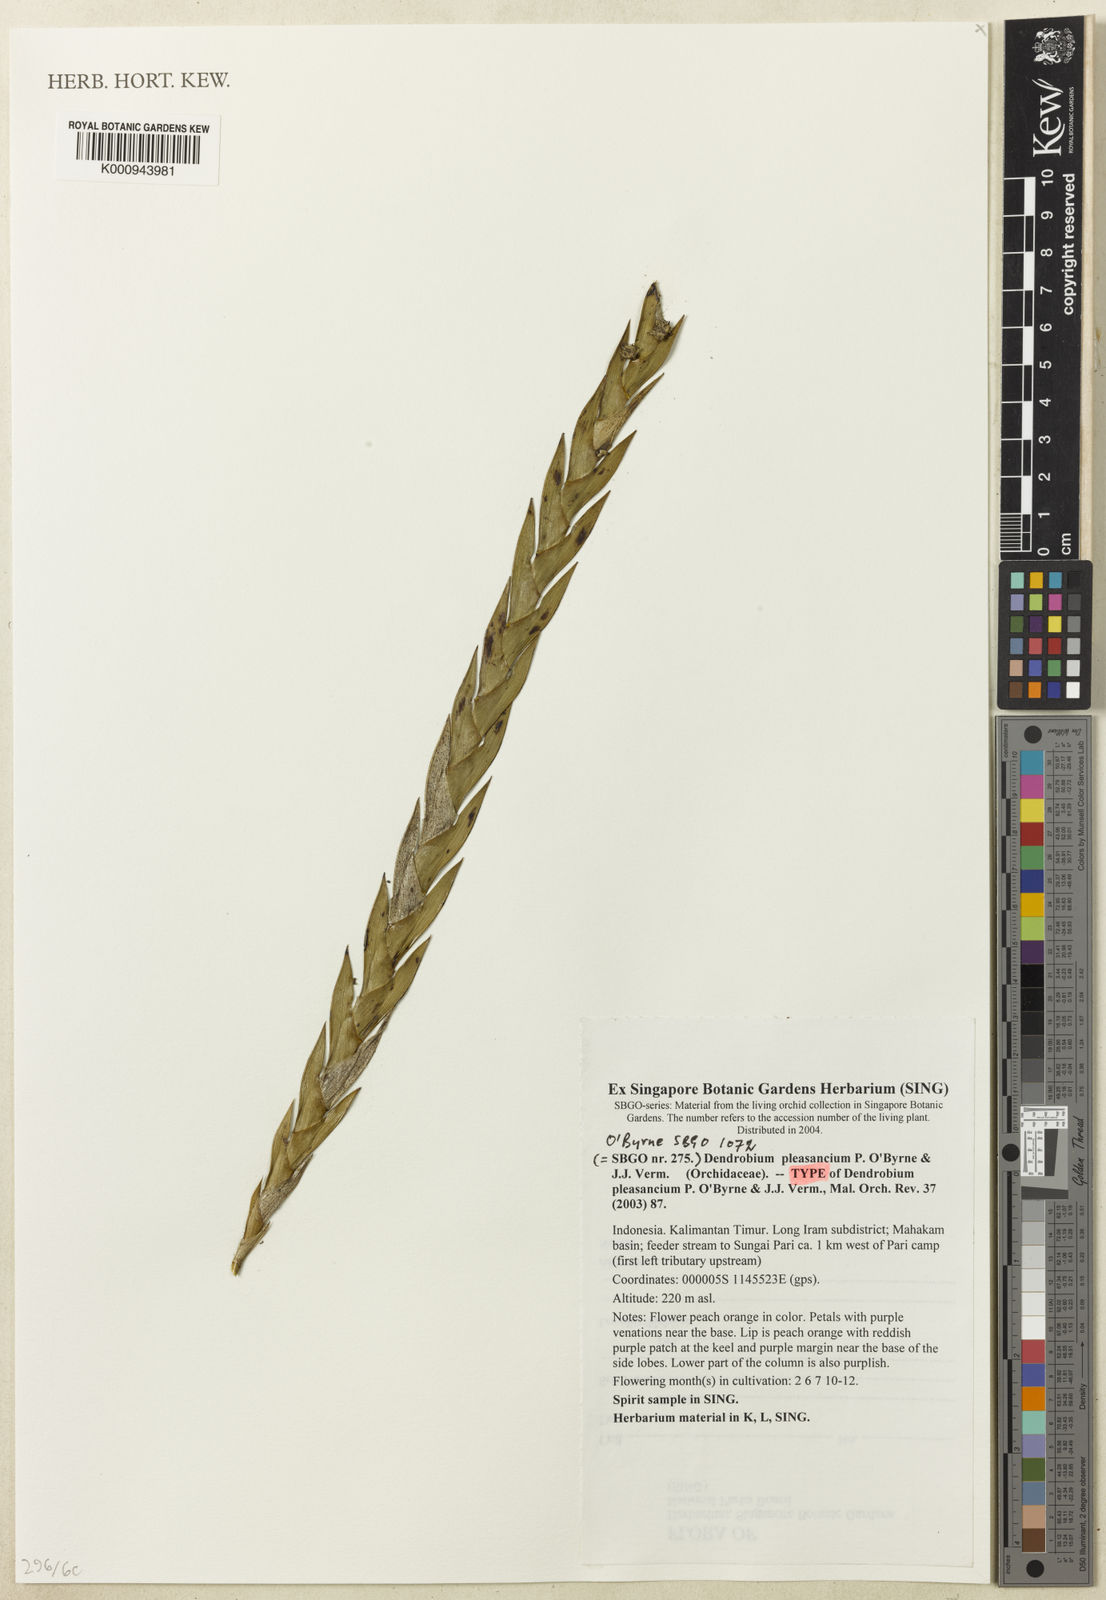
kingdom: Plantae
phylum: Tracheophyta
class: Liliopsida
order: Asparagales
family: Orchidaceae
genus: Dendrobium
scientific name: Dendrobium pleasancium
